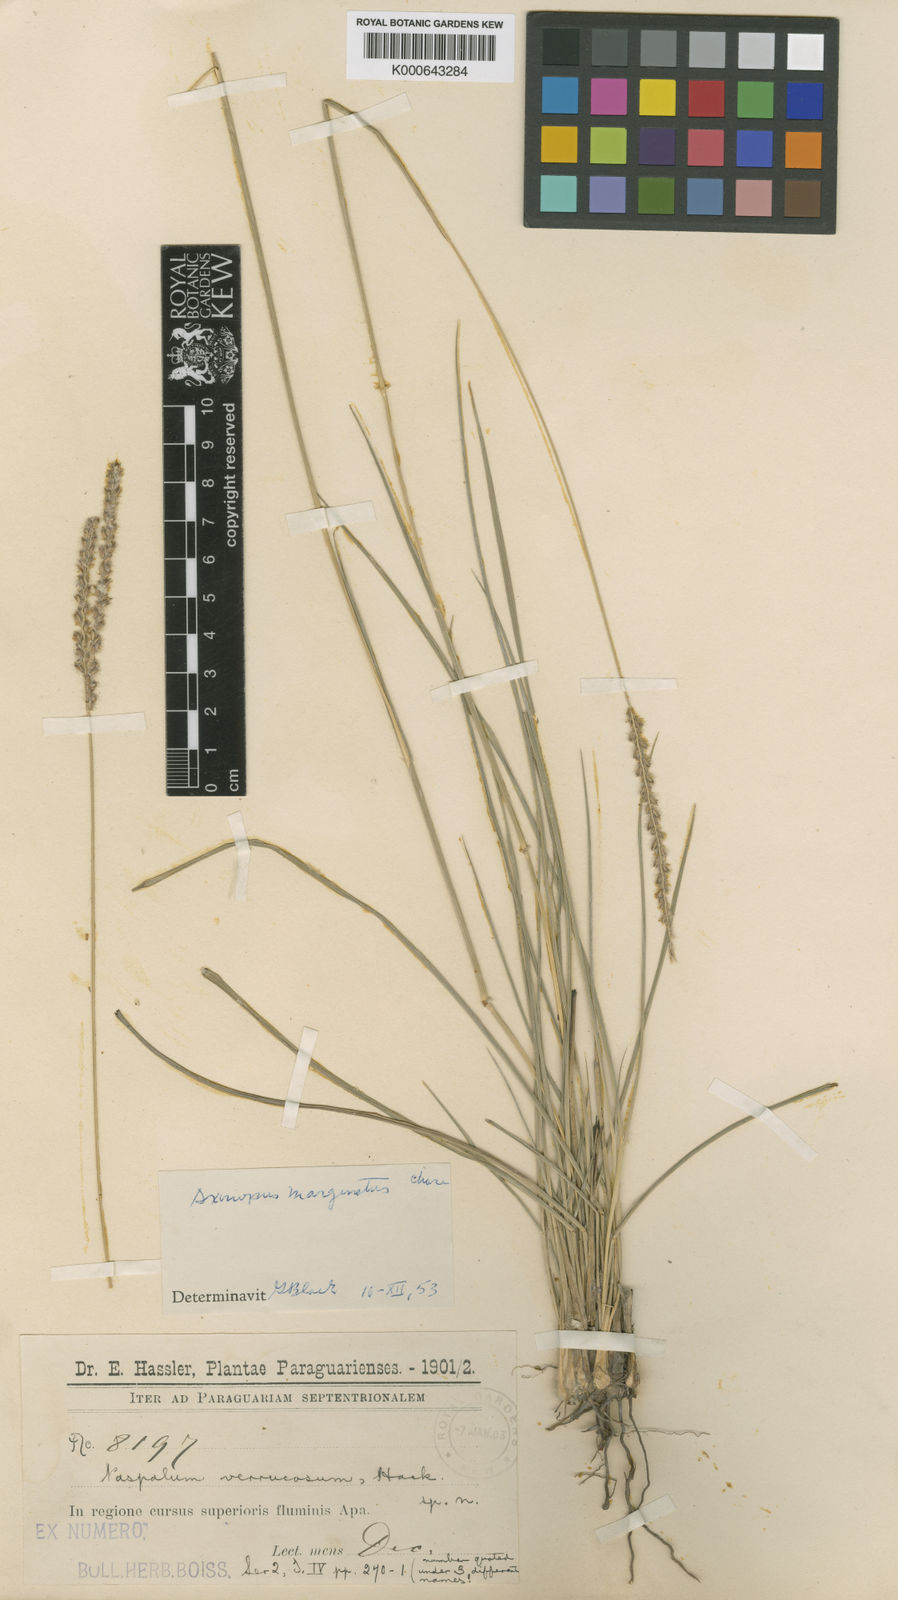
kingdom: Plantae
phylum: Tracheophyta
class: Liliopsida
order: Poales
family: Poaceae
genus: Axonopus
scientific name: Axonopus
